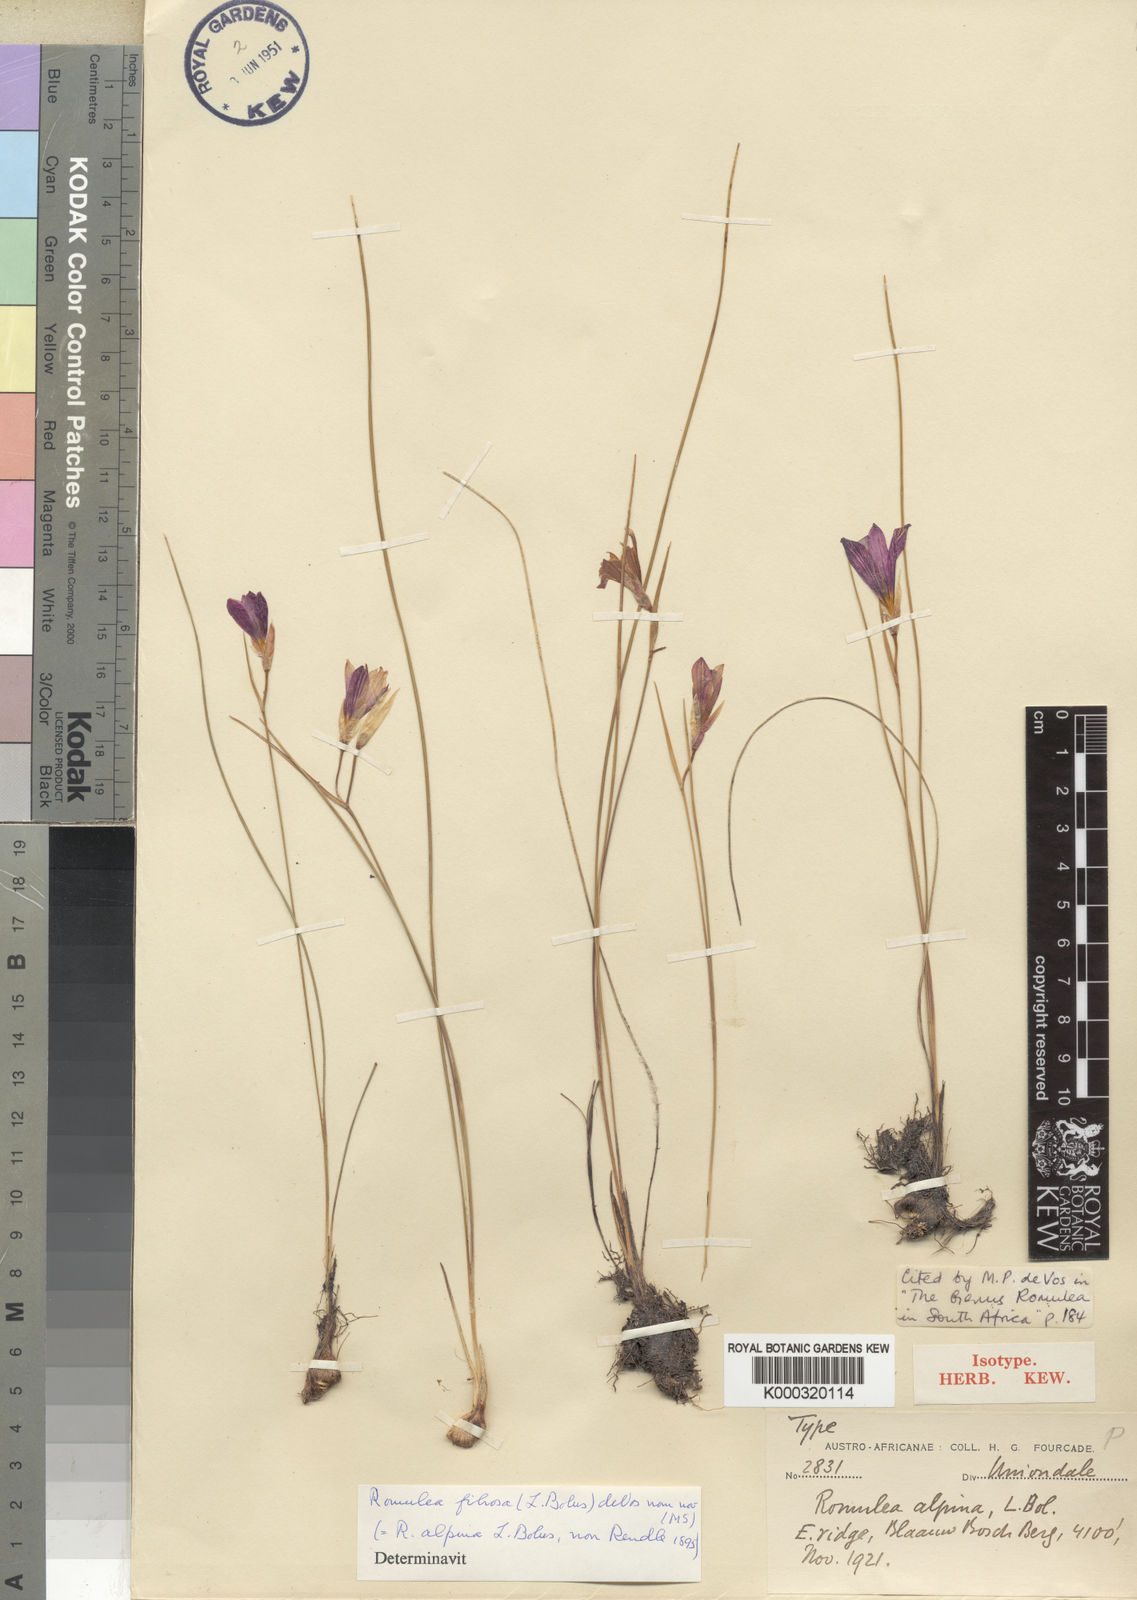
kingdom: Plantae
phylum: Tracheophyta
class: Liliopsida
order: Asparagales
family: Iridaceae
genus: Romulea
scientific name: Romulea fibrosa
